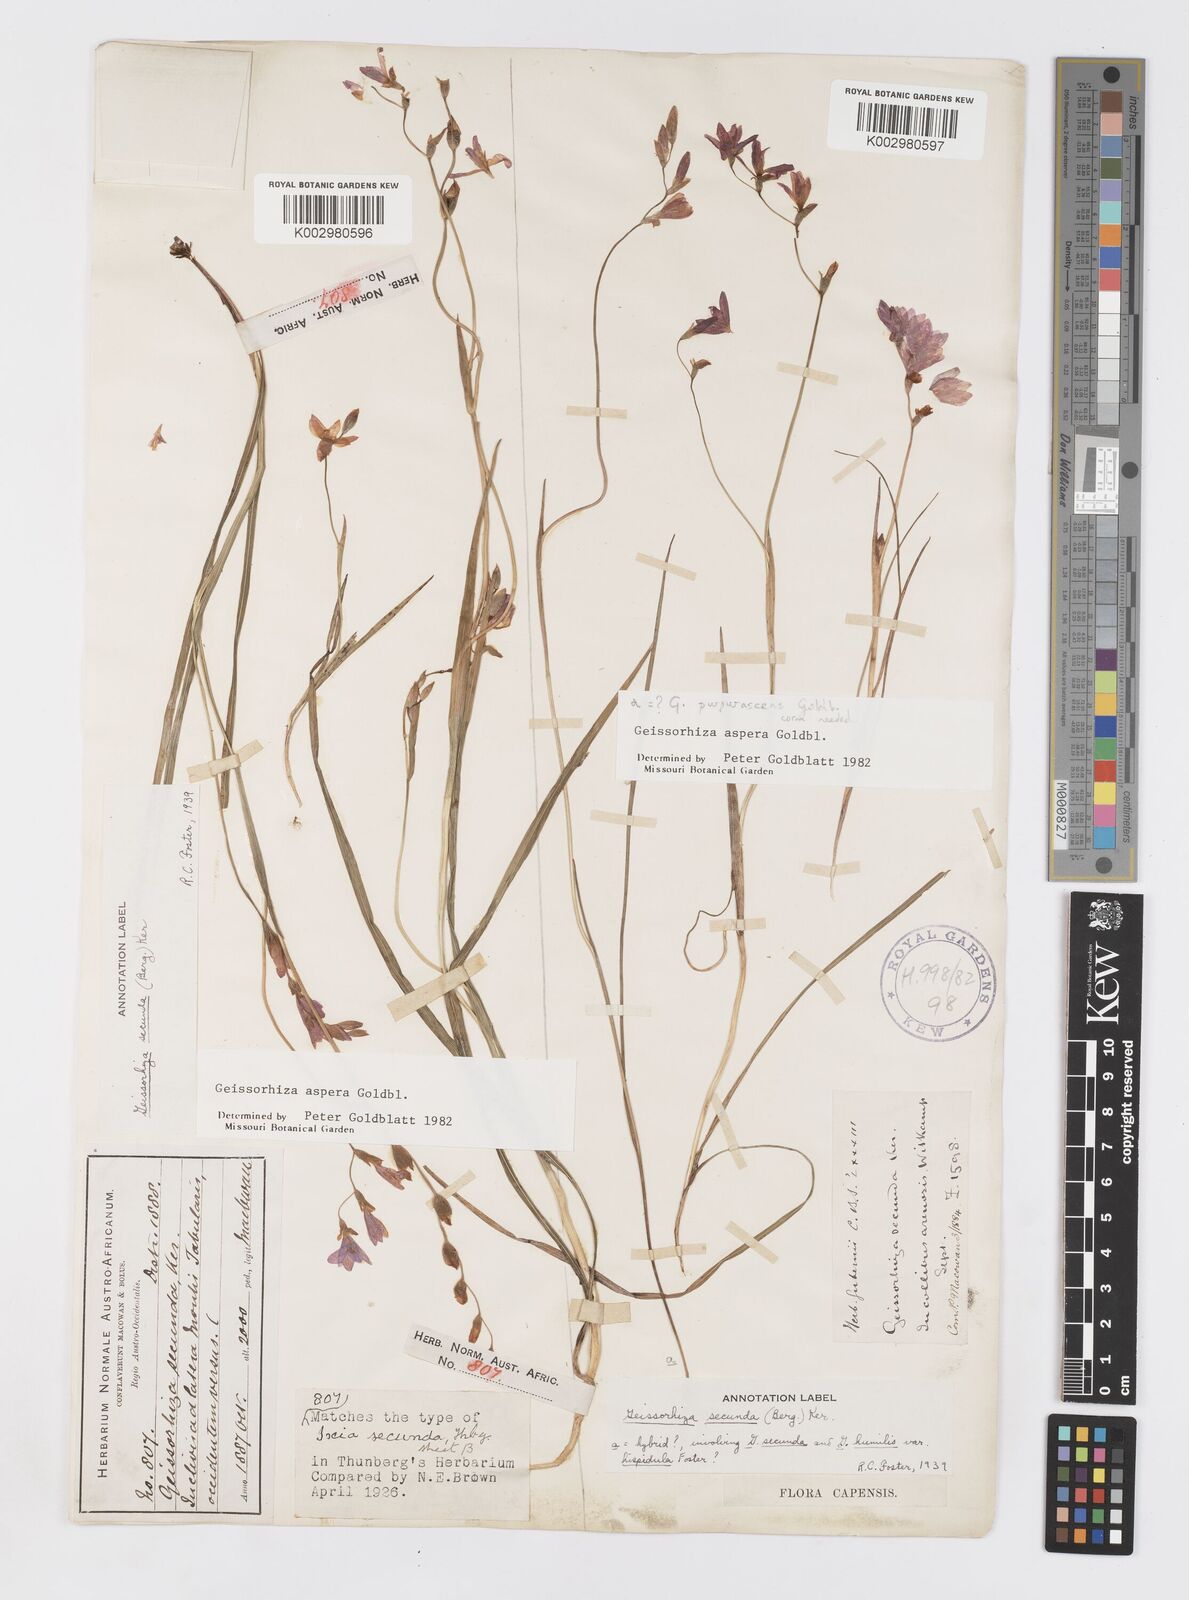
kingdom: Plantae
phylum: Tracheophyta
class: Liliopsida
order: Asparagales
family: Iridaceae
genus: Geissorhiza
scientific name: Geissorhiza aspera
